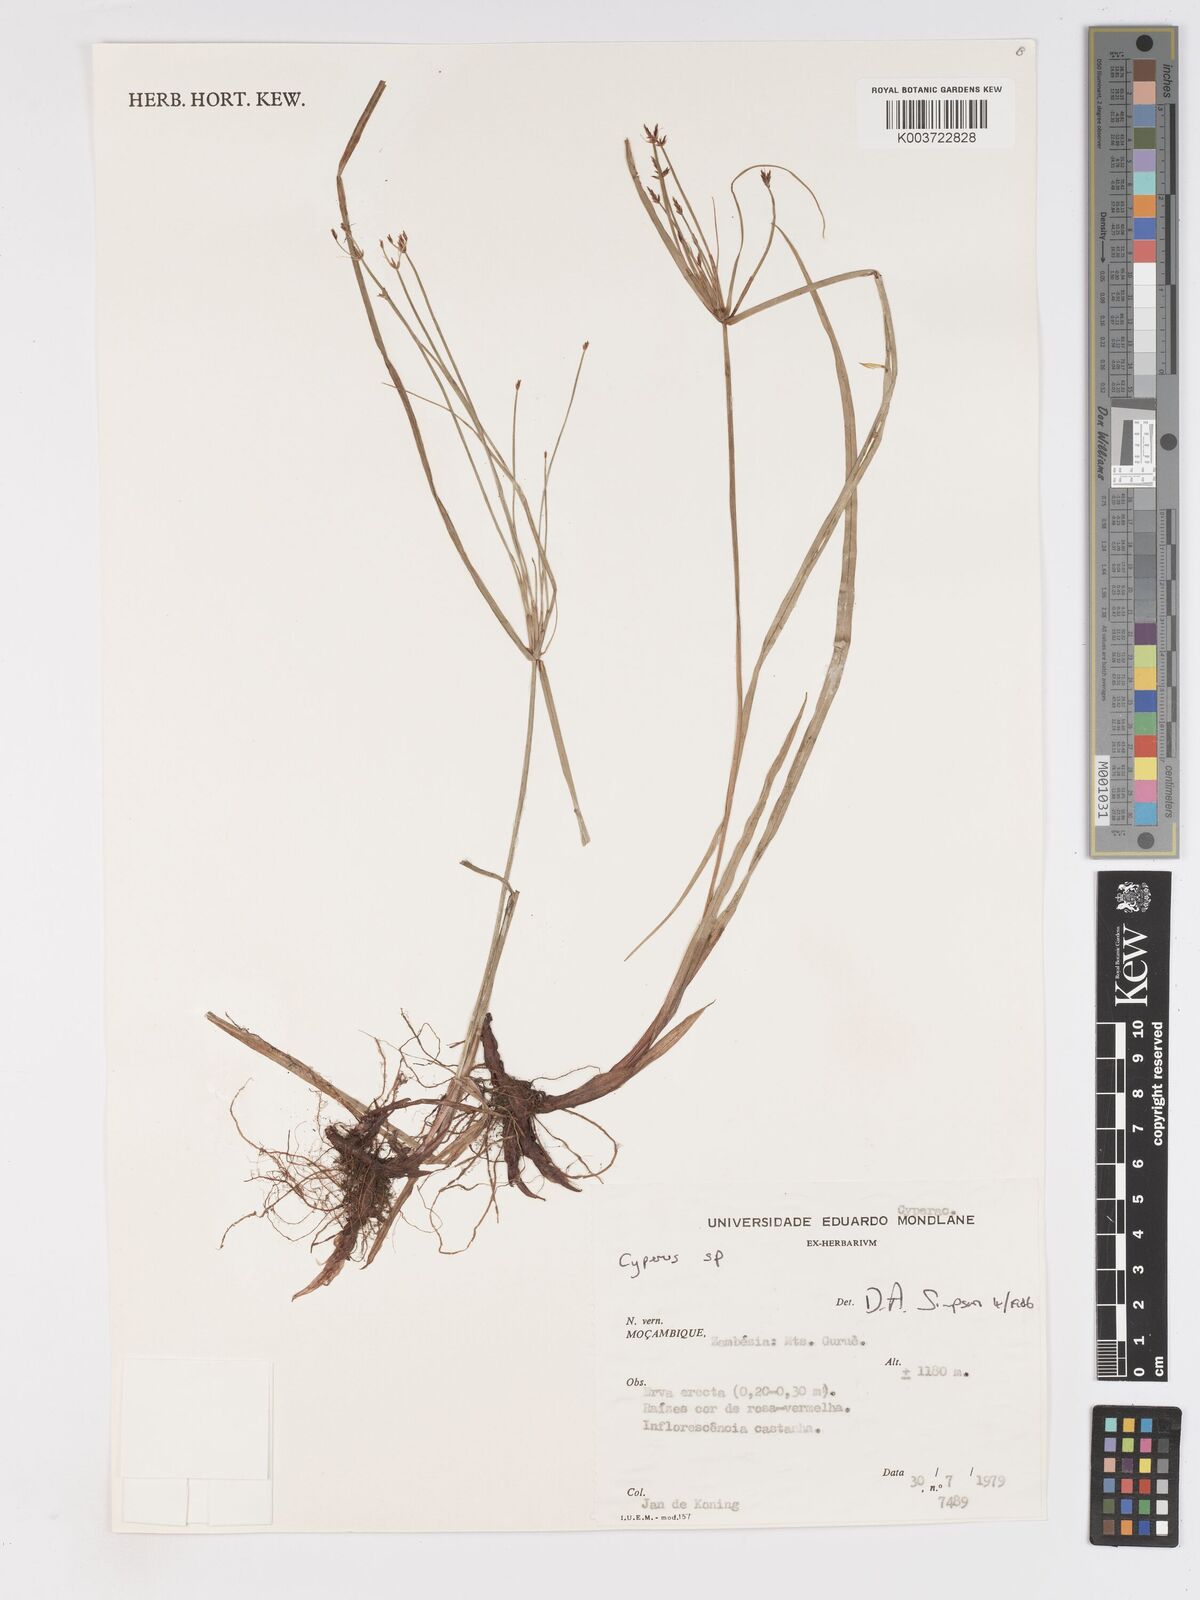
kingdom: Plantae
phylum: Tracheophyta
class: Liliopsida
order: Poales
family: Cyperaceae
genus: Cyperus
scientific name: Cyperus glaucophyllus
